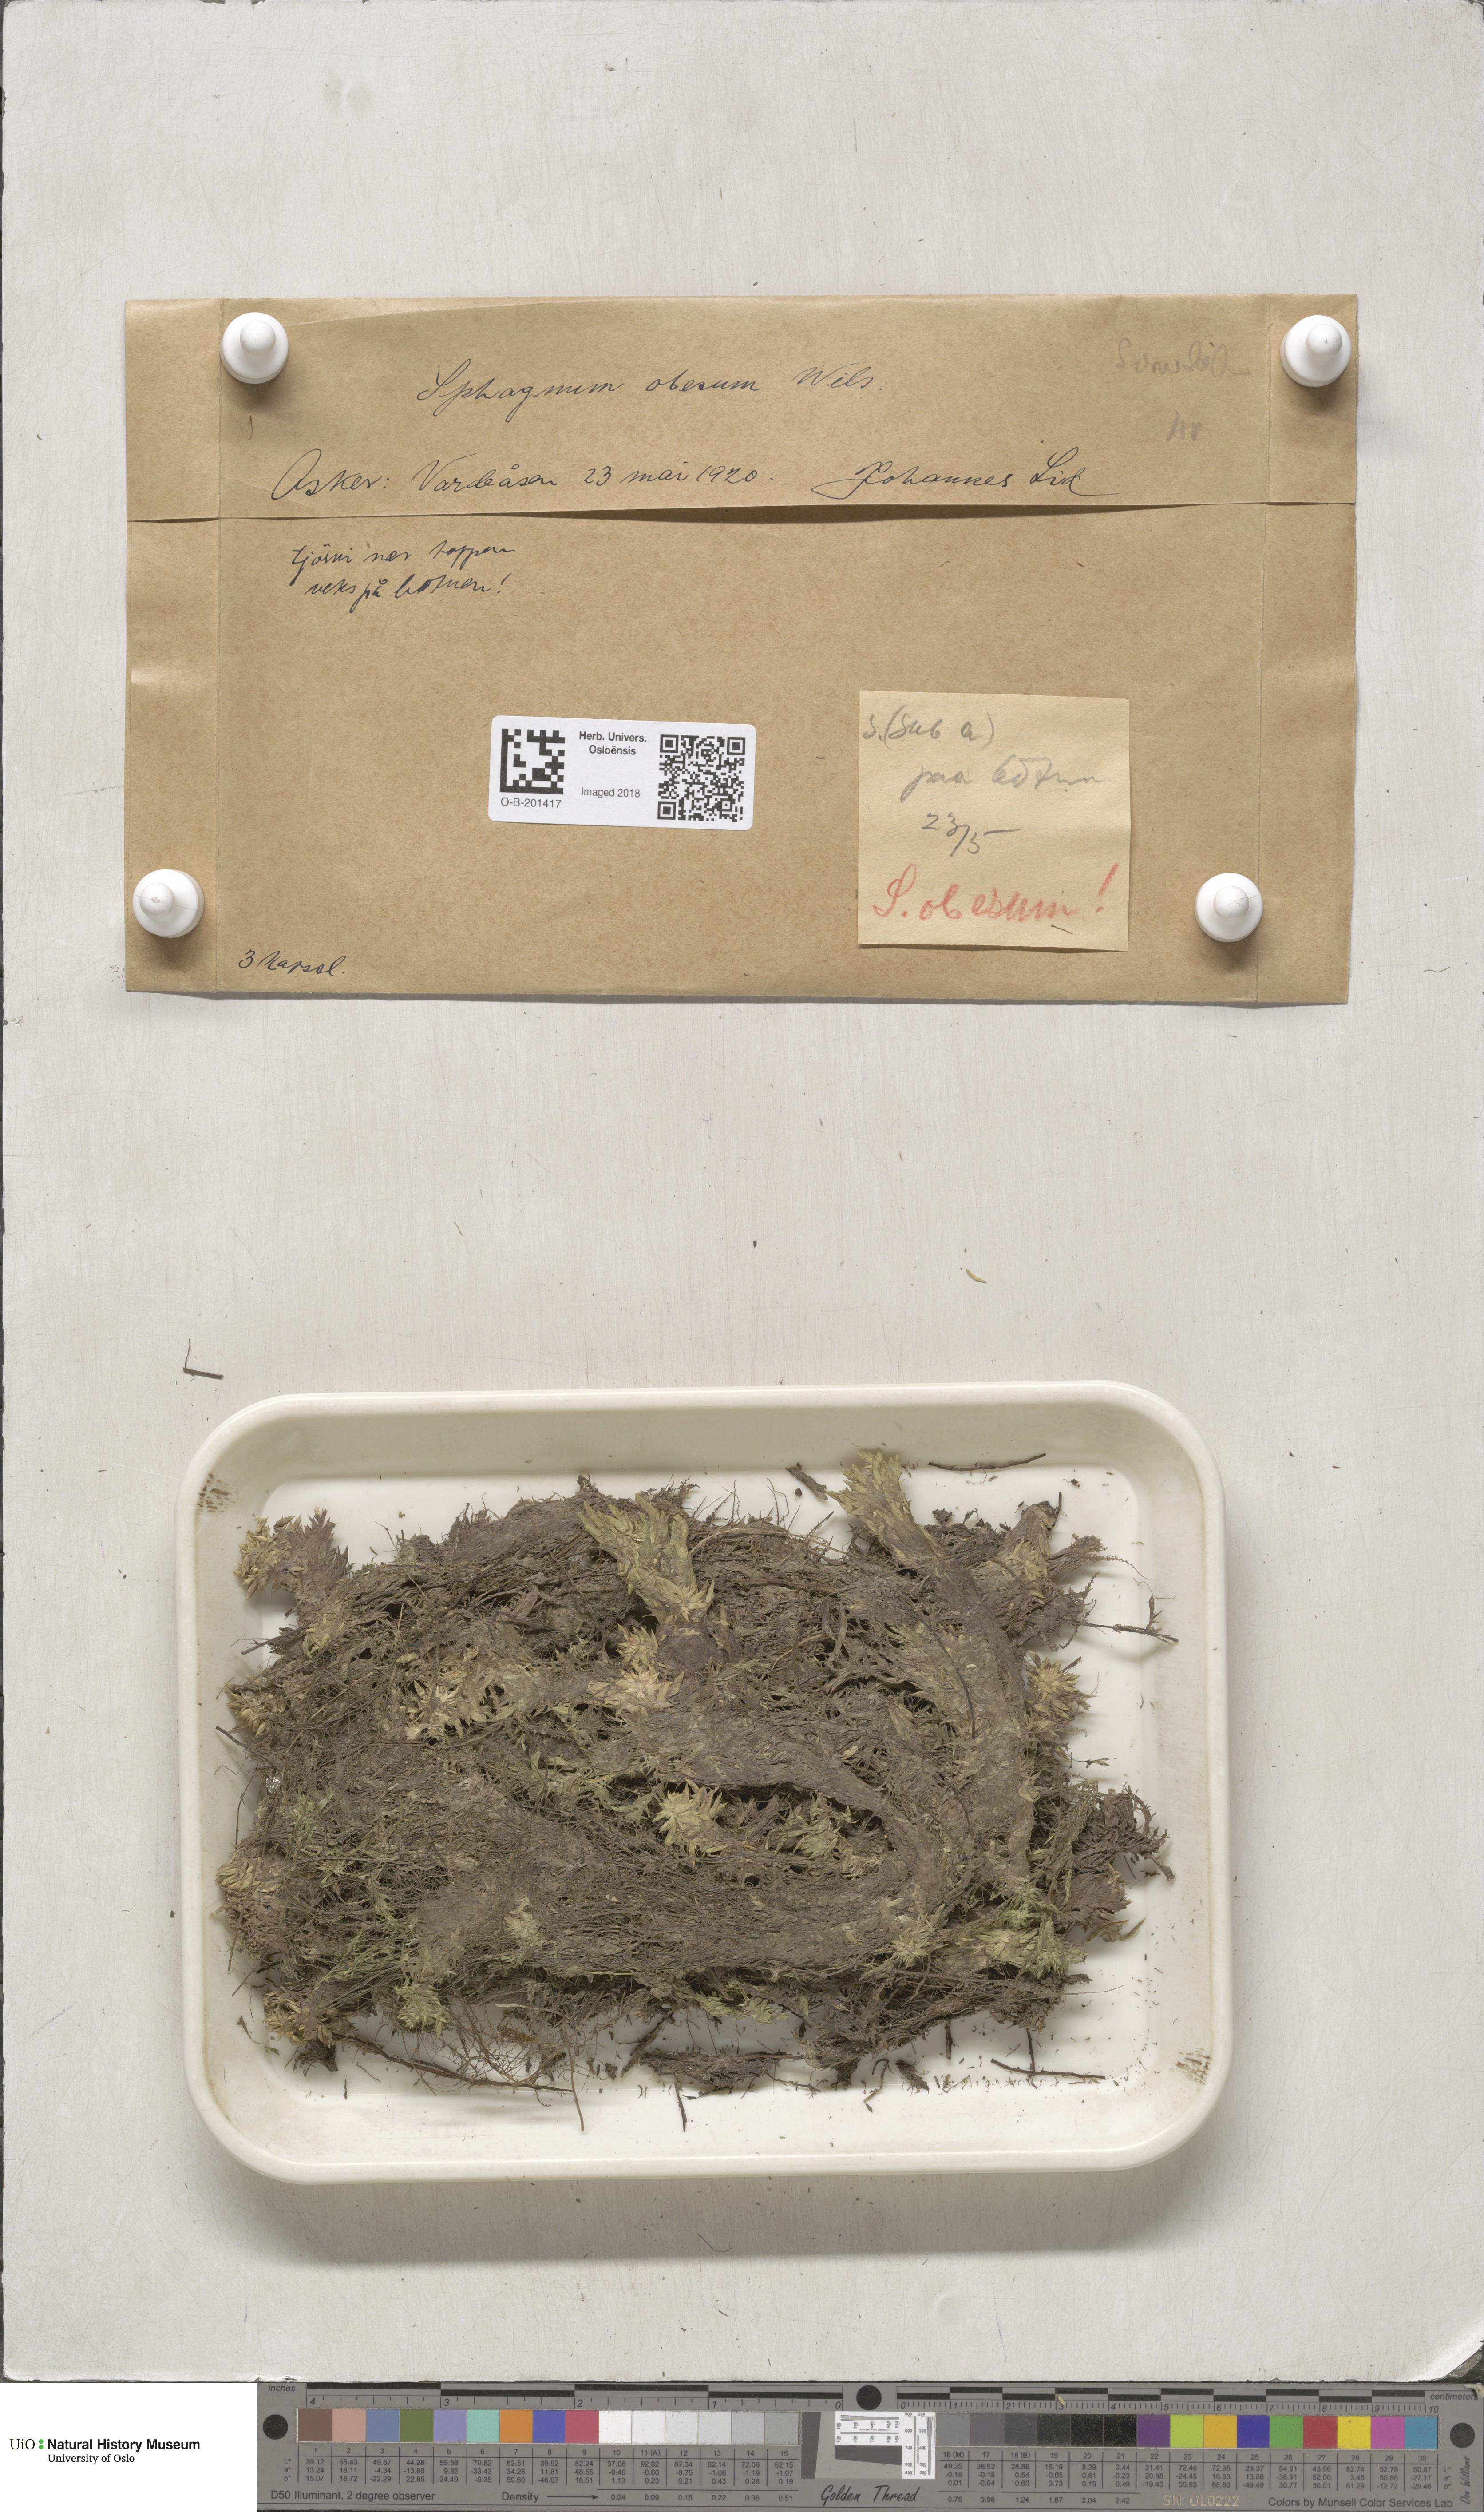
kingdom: Plantae
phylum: Bryophyta
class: Sphagnopsida
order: Sphagnales
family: Sphagnaceae
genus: Sphagnum
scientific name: Sphagnum inundatum
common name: Lesser cow-horn bog-moss
